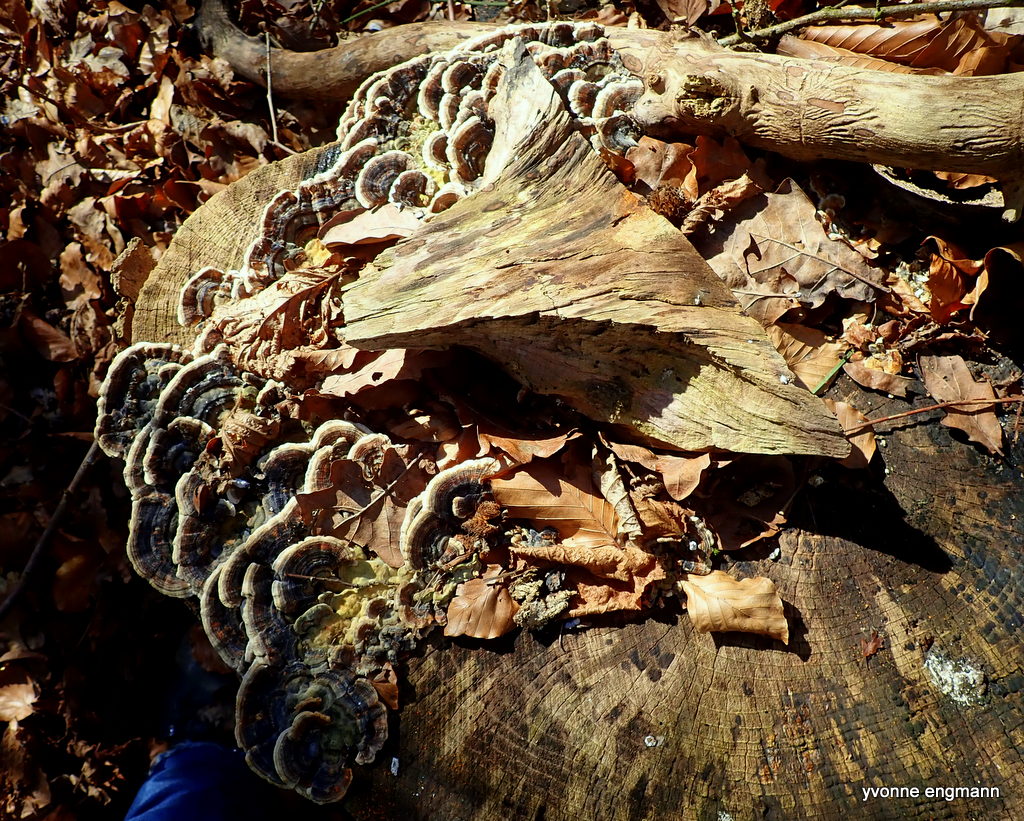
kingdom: Fungi
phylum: Basidiomycota
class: Agaricomycetes
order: Polyporales
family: Polyporaceae
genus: Trametes
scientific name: Trametes versicolor
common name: broget læderporesvamp
